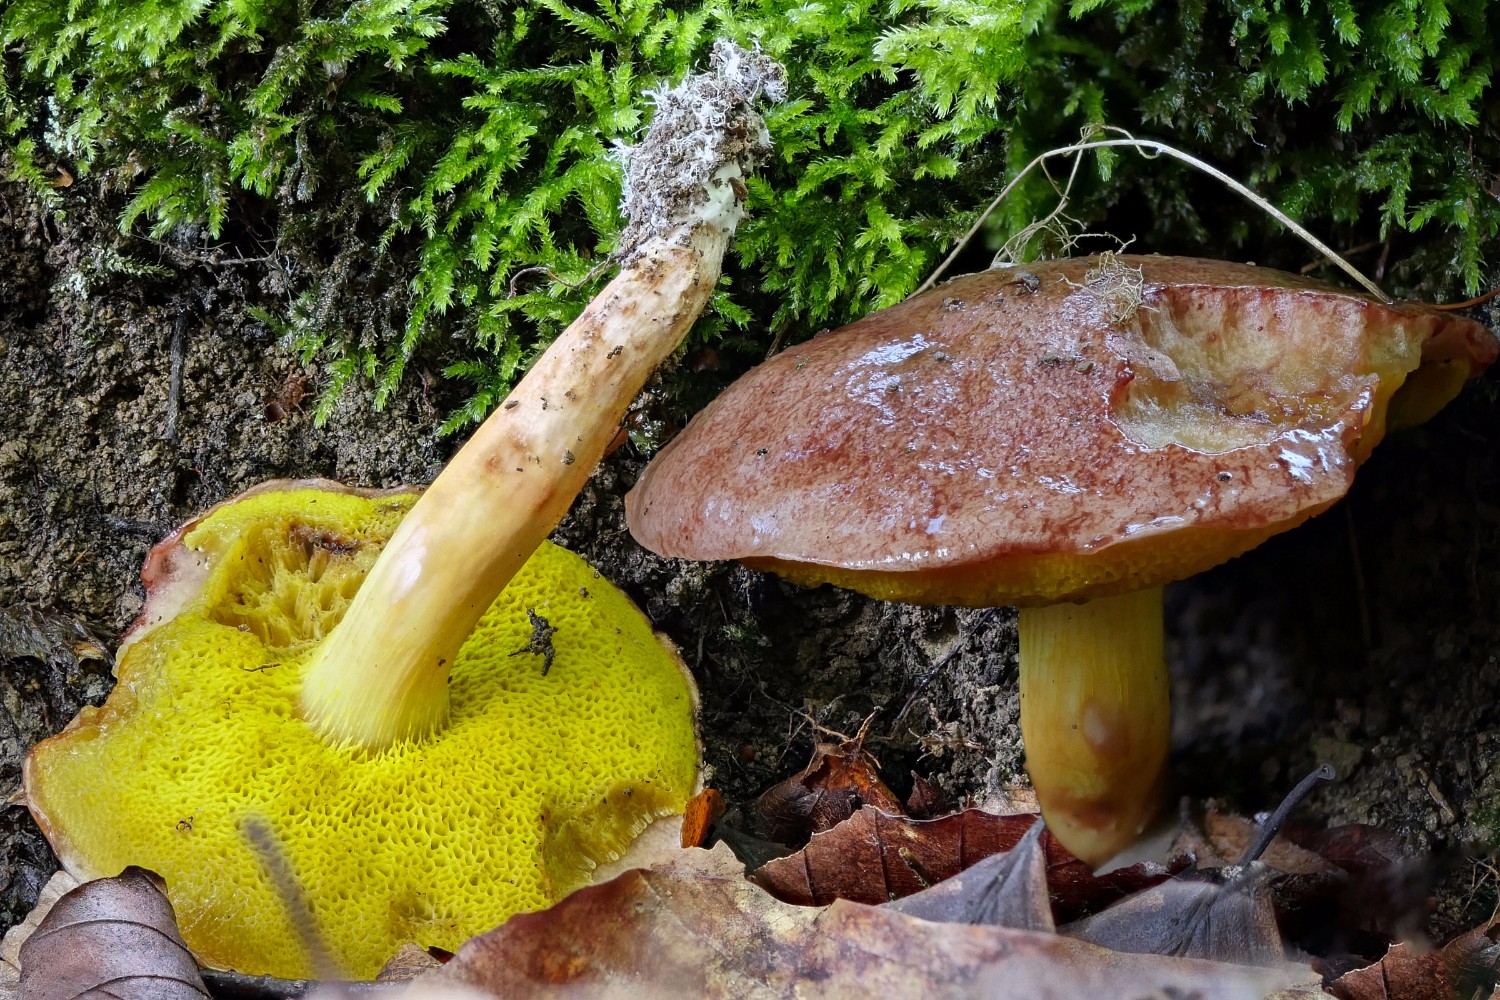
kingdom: Fungi
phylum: Basidiomycota
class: Agaricomycetes
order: Boletales
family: Boletaceae
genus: Aureoboletus
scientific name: Aureoboletus gentilis
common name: guldrørhat
